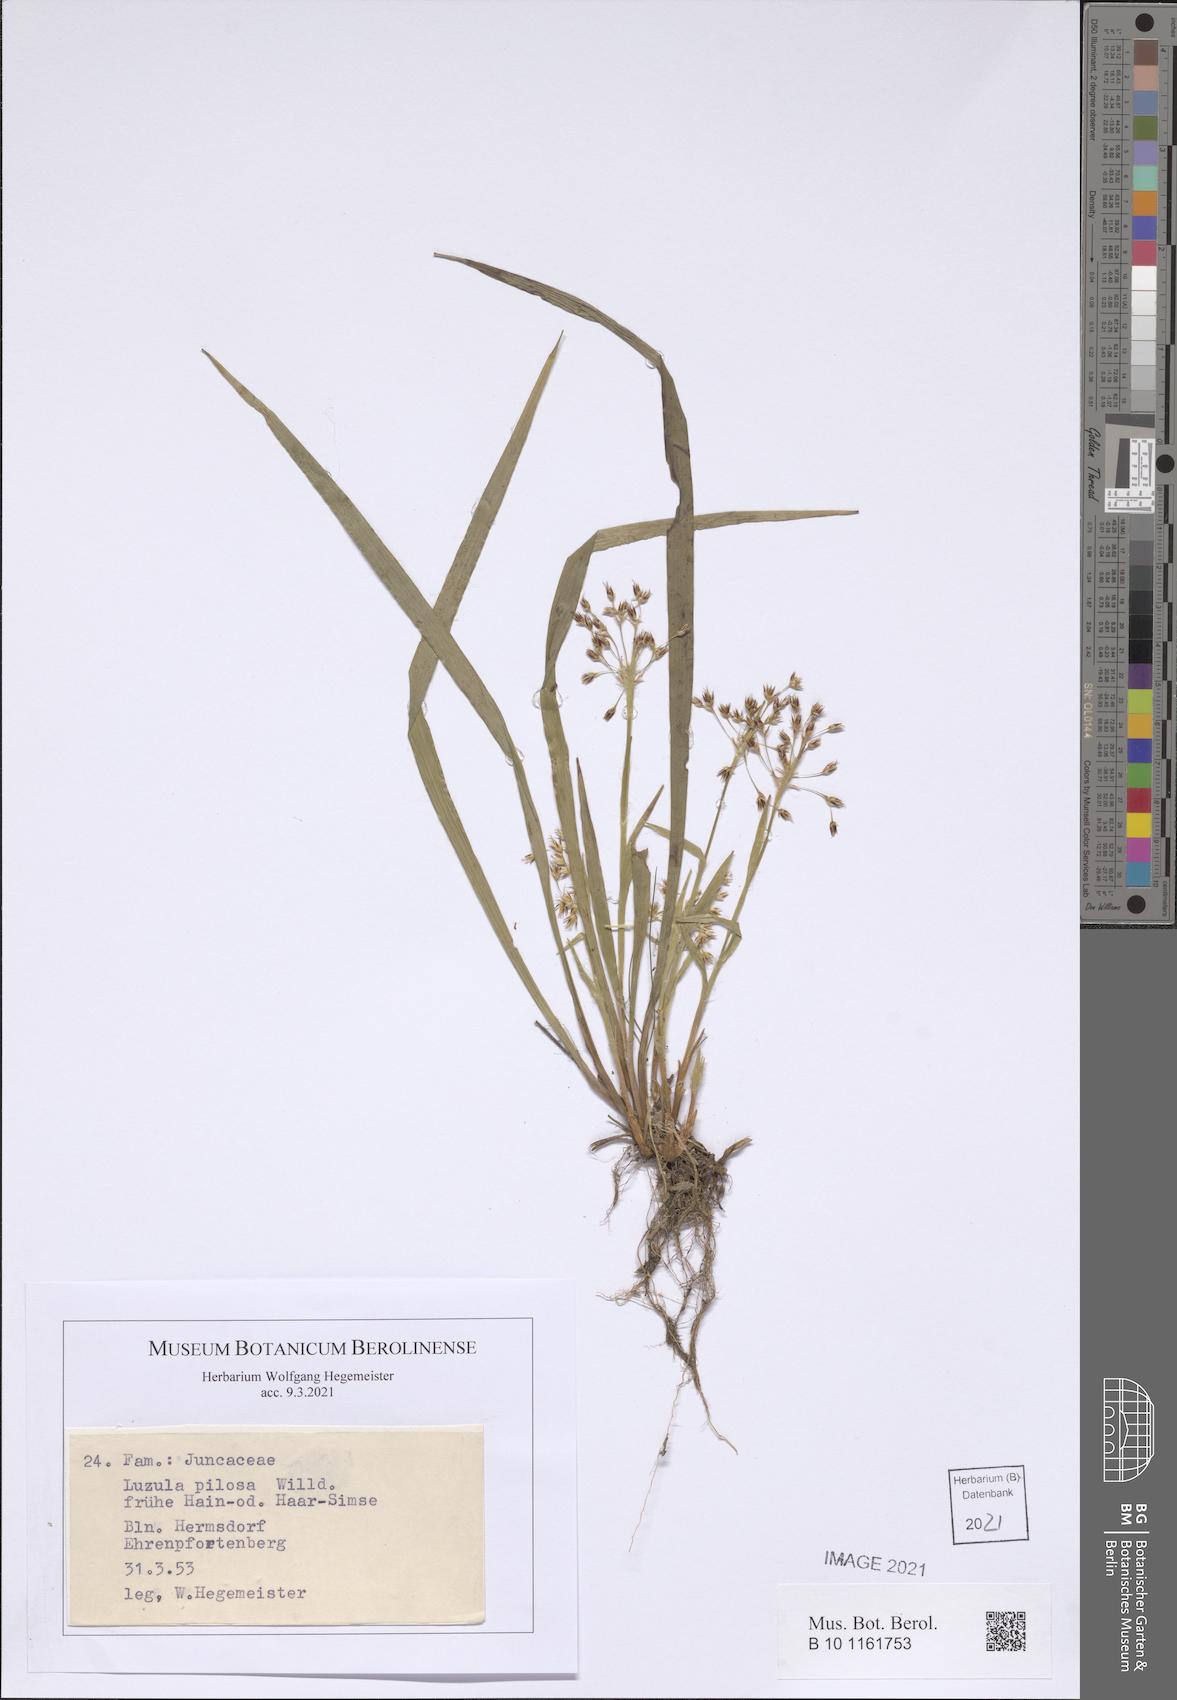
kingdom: Plantae
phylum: Tracheophyta
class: Liliopsida
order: Poales
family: Juncaceae
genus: Luzula
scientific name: Luzula pilosa
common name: Hairy wood-rush
